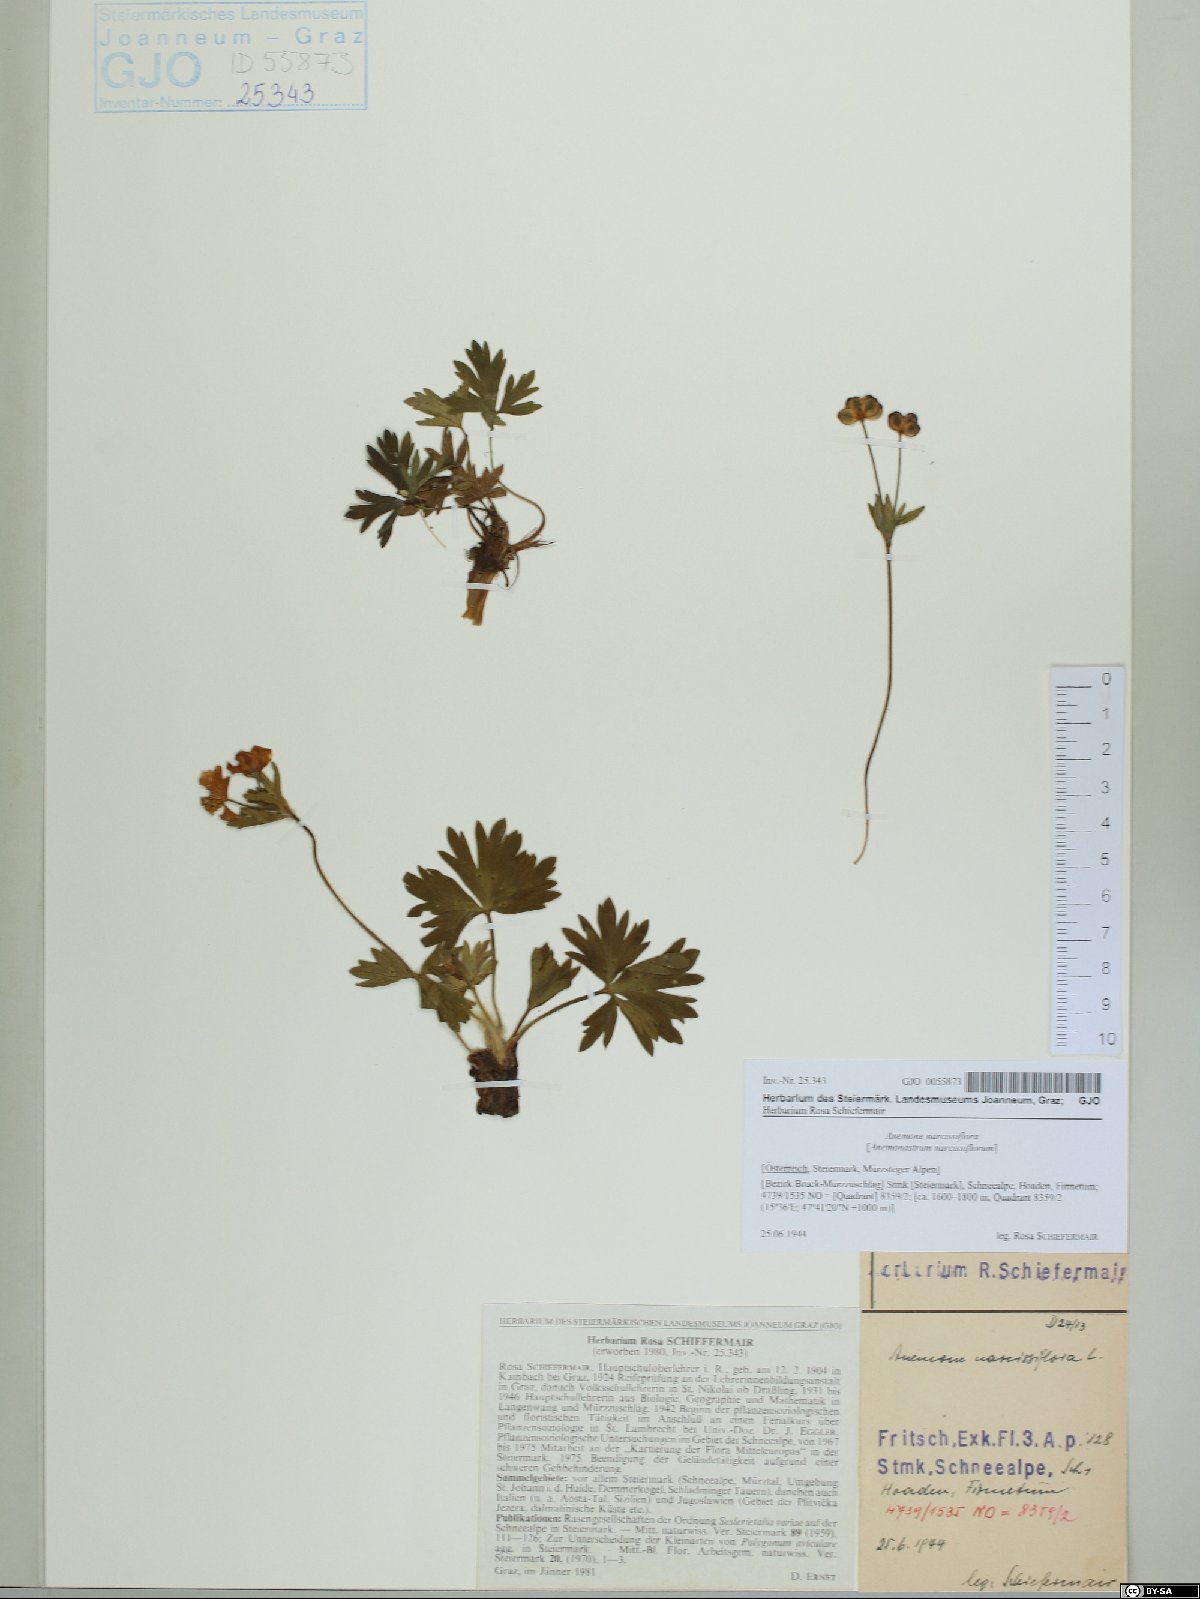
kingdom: Plantae
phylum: Tracheophyta
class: Magnoliopsida
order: Ranunculales
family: Ranunculaceae
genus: Anemonastrum
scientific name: Anemonastrum narcissiflorum
